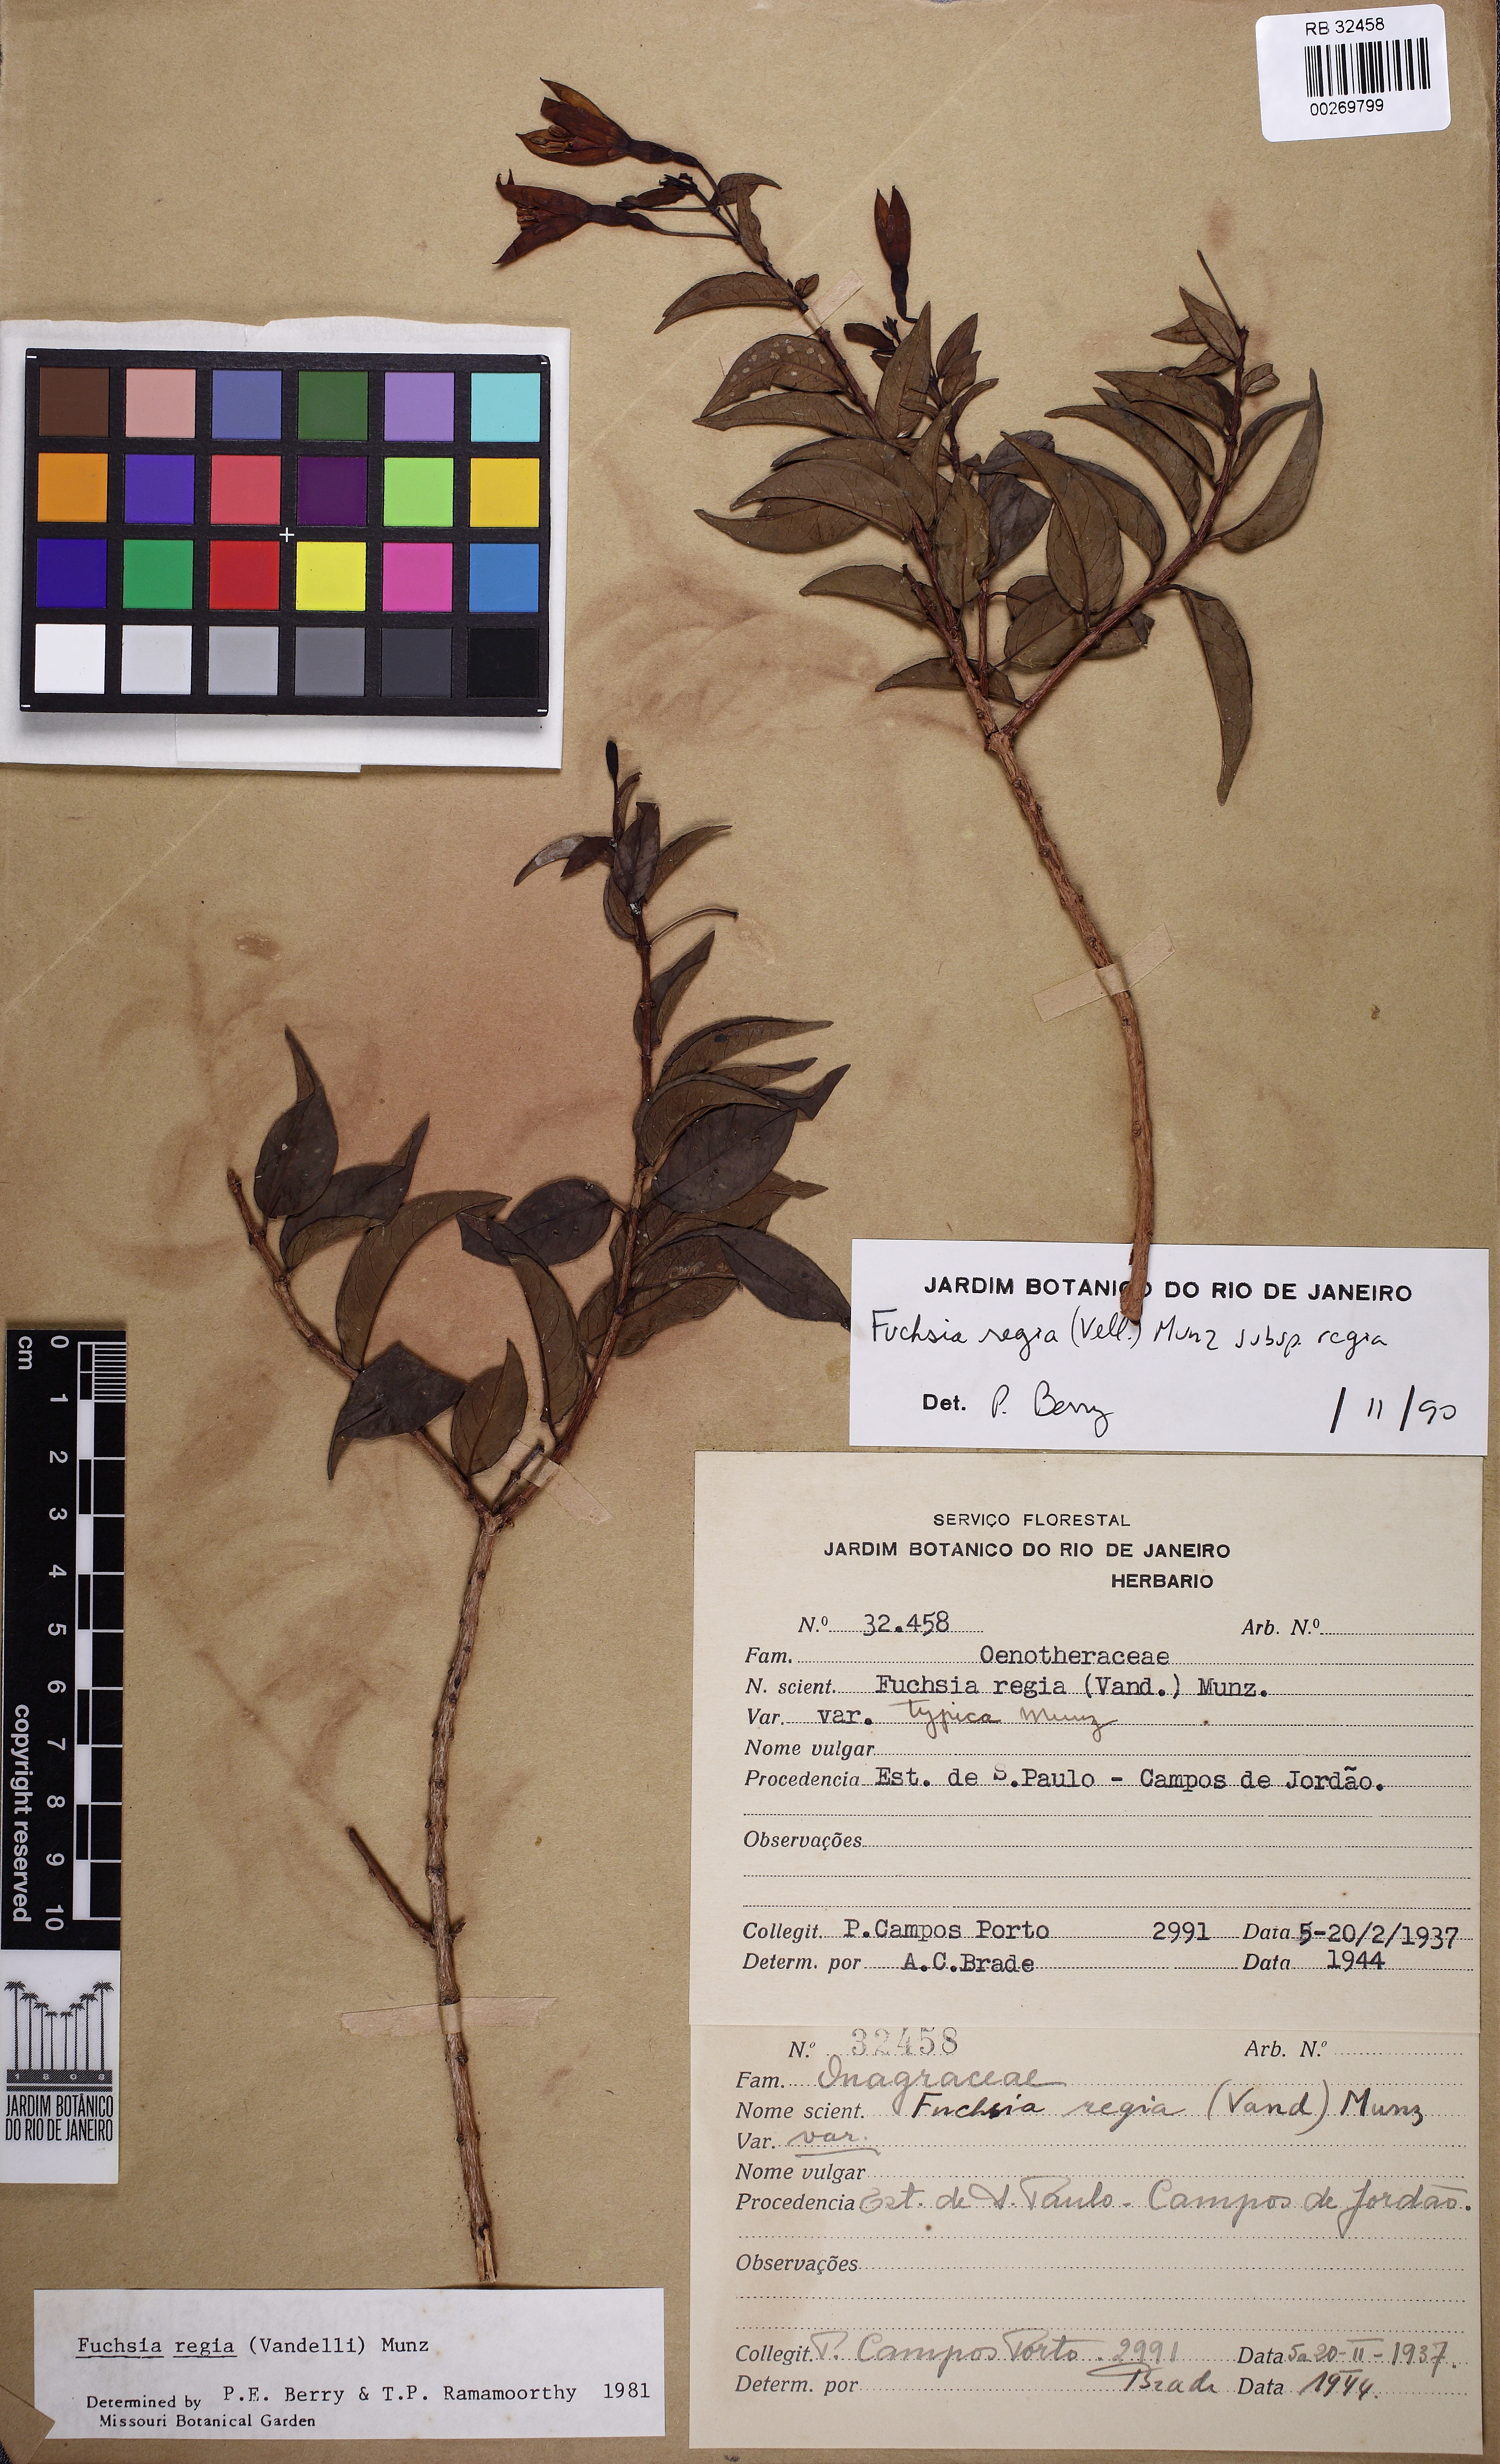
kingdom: Plantae
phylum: Tracheophyta
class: Magnoliopsida
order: Myrtales
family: Onagraceae
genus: Fuchsia
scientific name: Fuchsia regia
